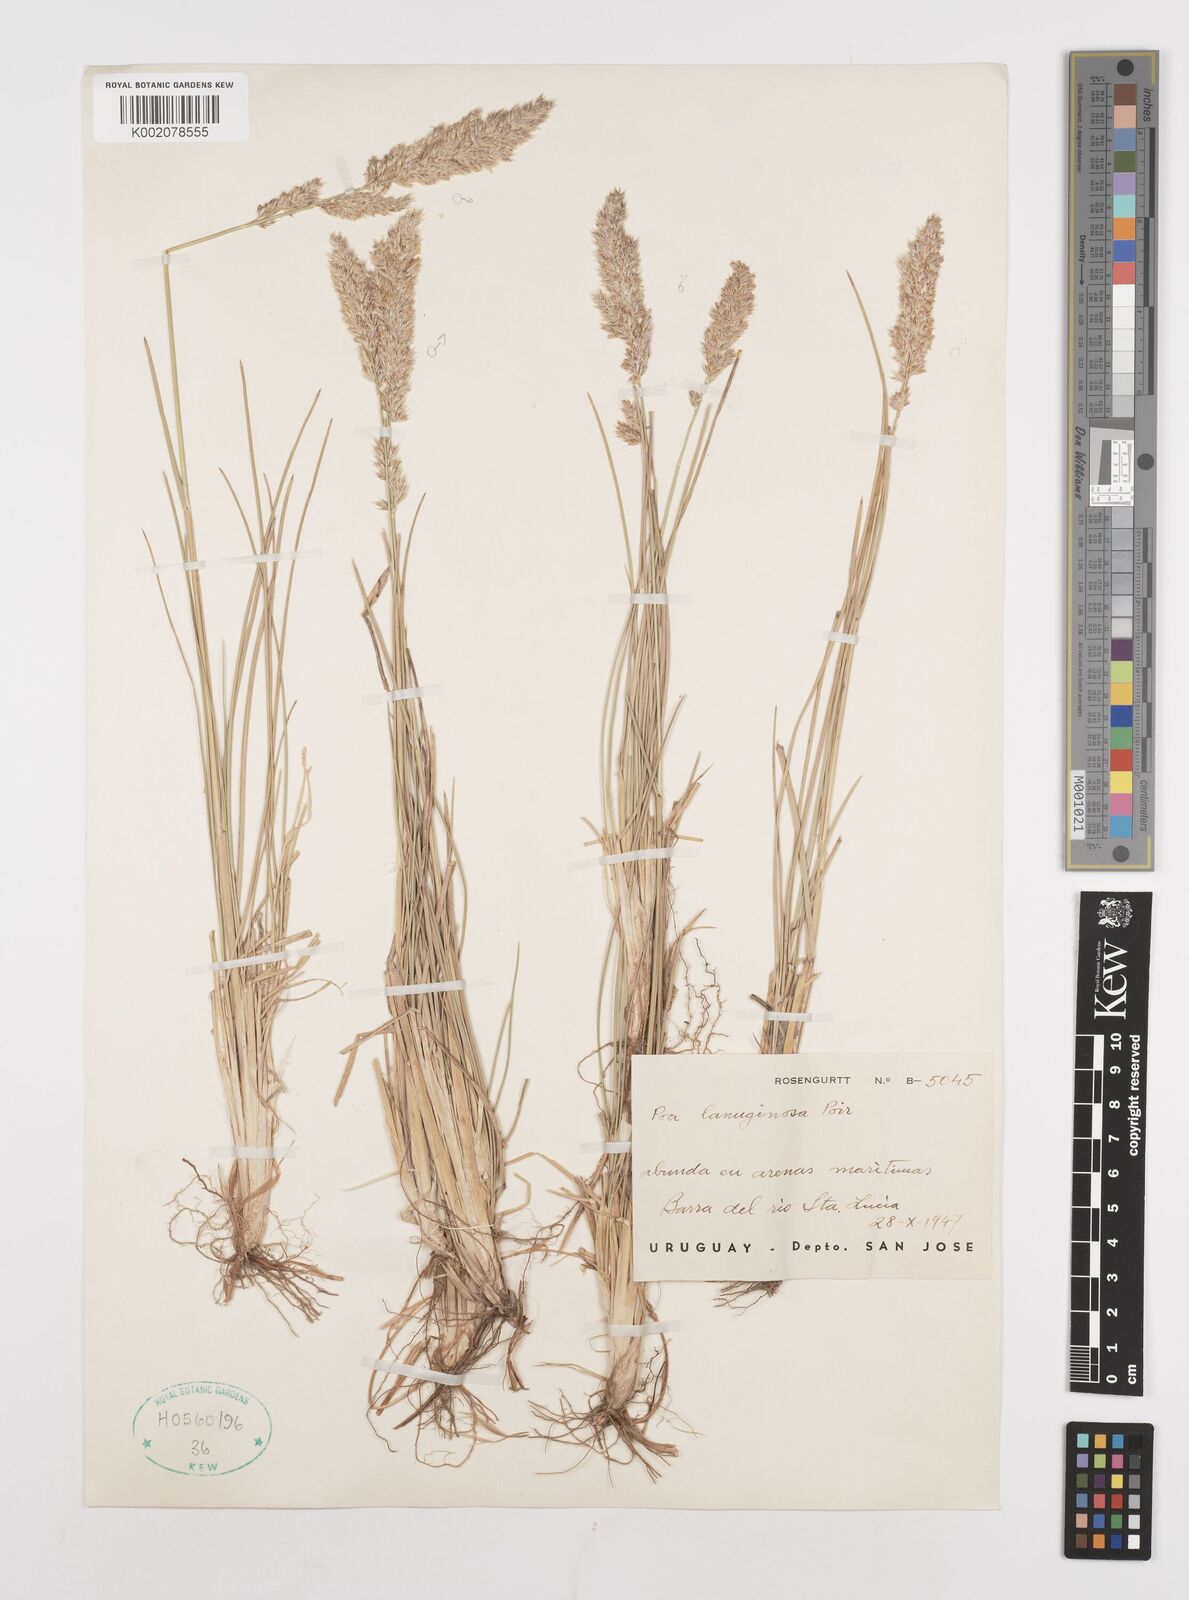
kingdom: Plantae
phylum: Tracheophyta
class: Liliopsida
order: Poales
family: Poaceae
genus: Poa
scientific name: Poa lanuginosa
